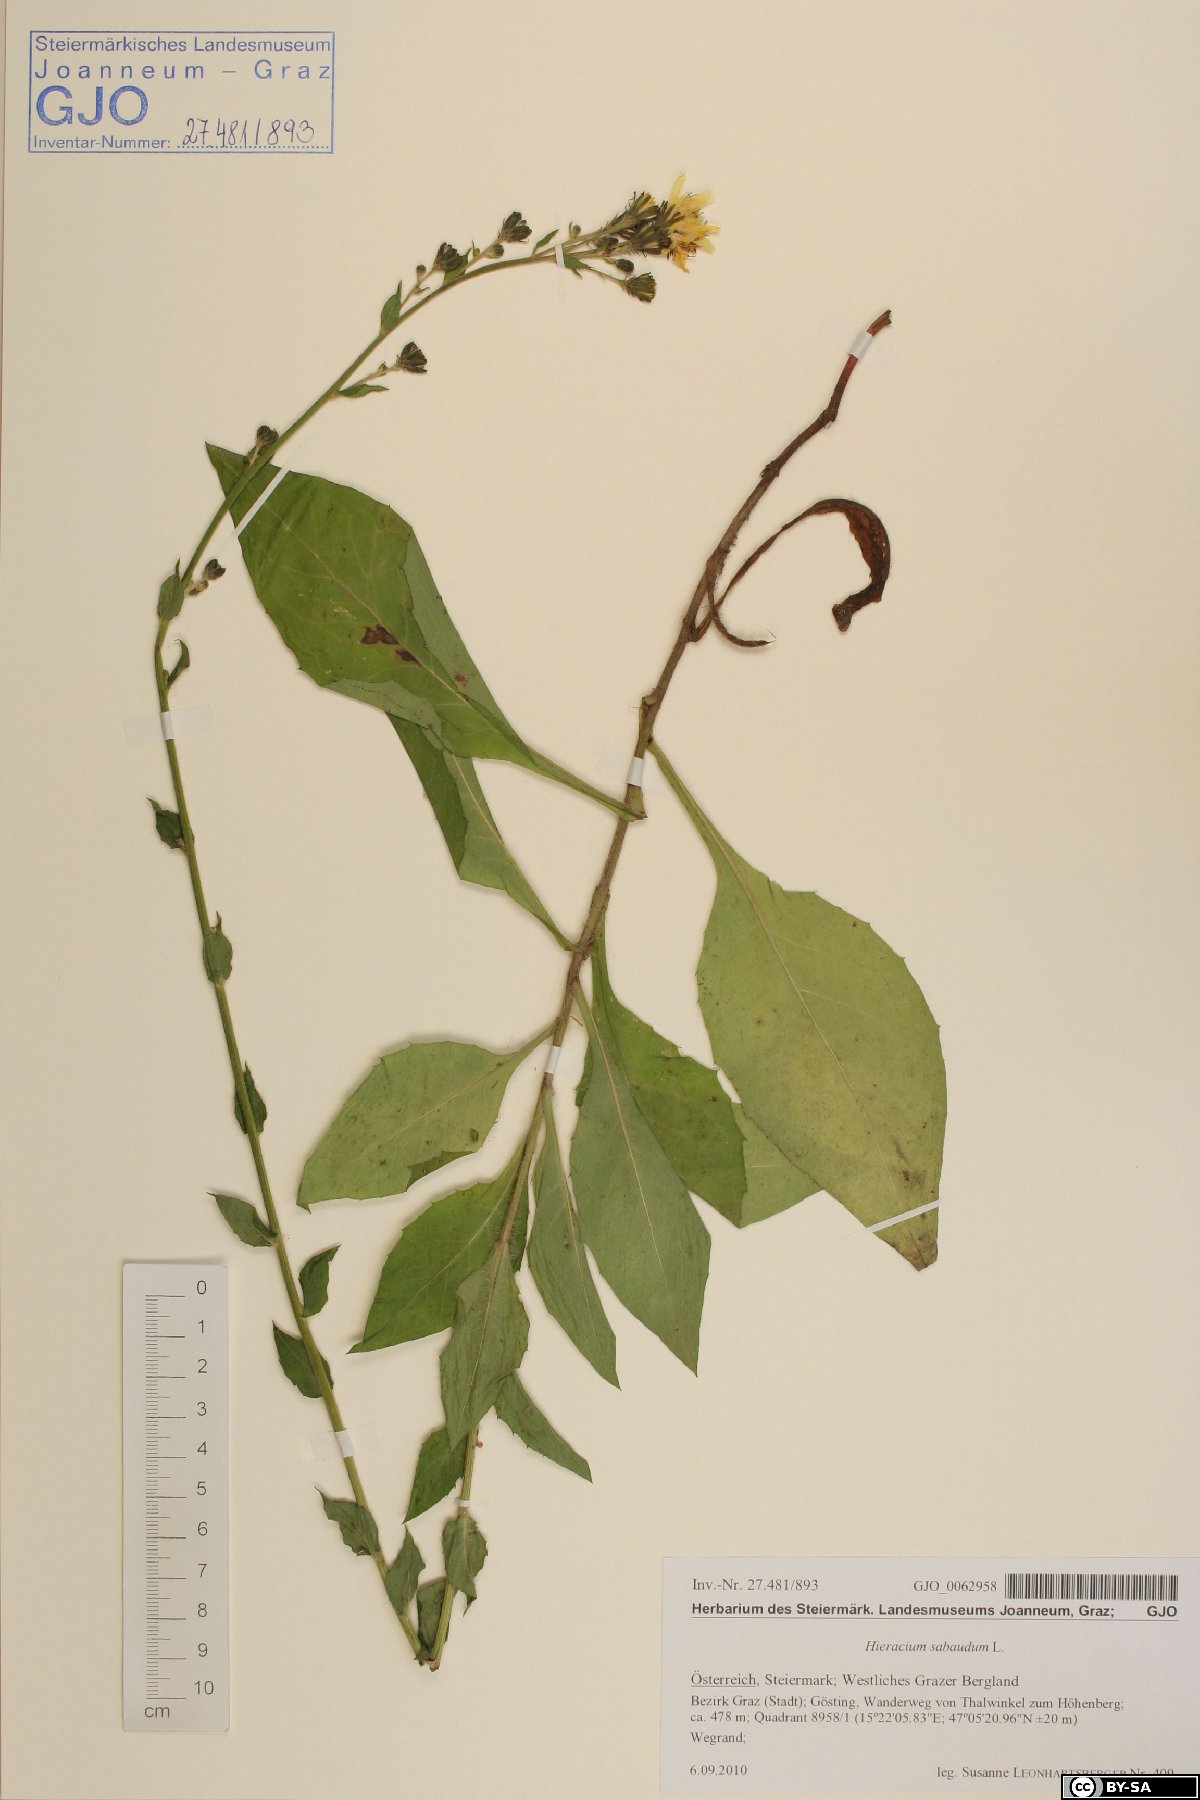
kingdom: Plantae
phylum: Tracheophyta
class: Magnoliopsida
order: Asterales
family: Asteraceae
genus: Hieracium
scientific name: Hieracium sabaudum
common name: New england hawkweed
